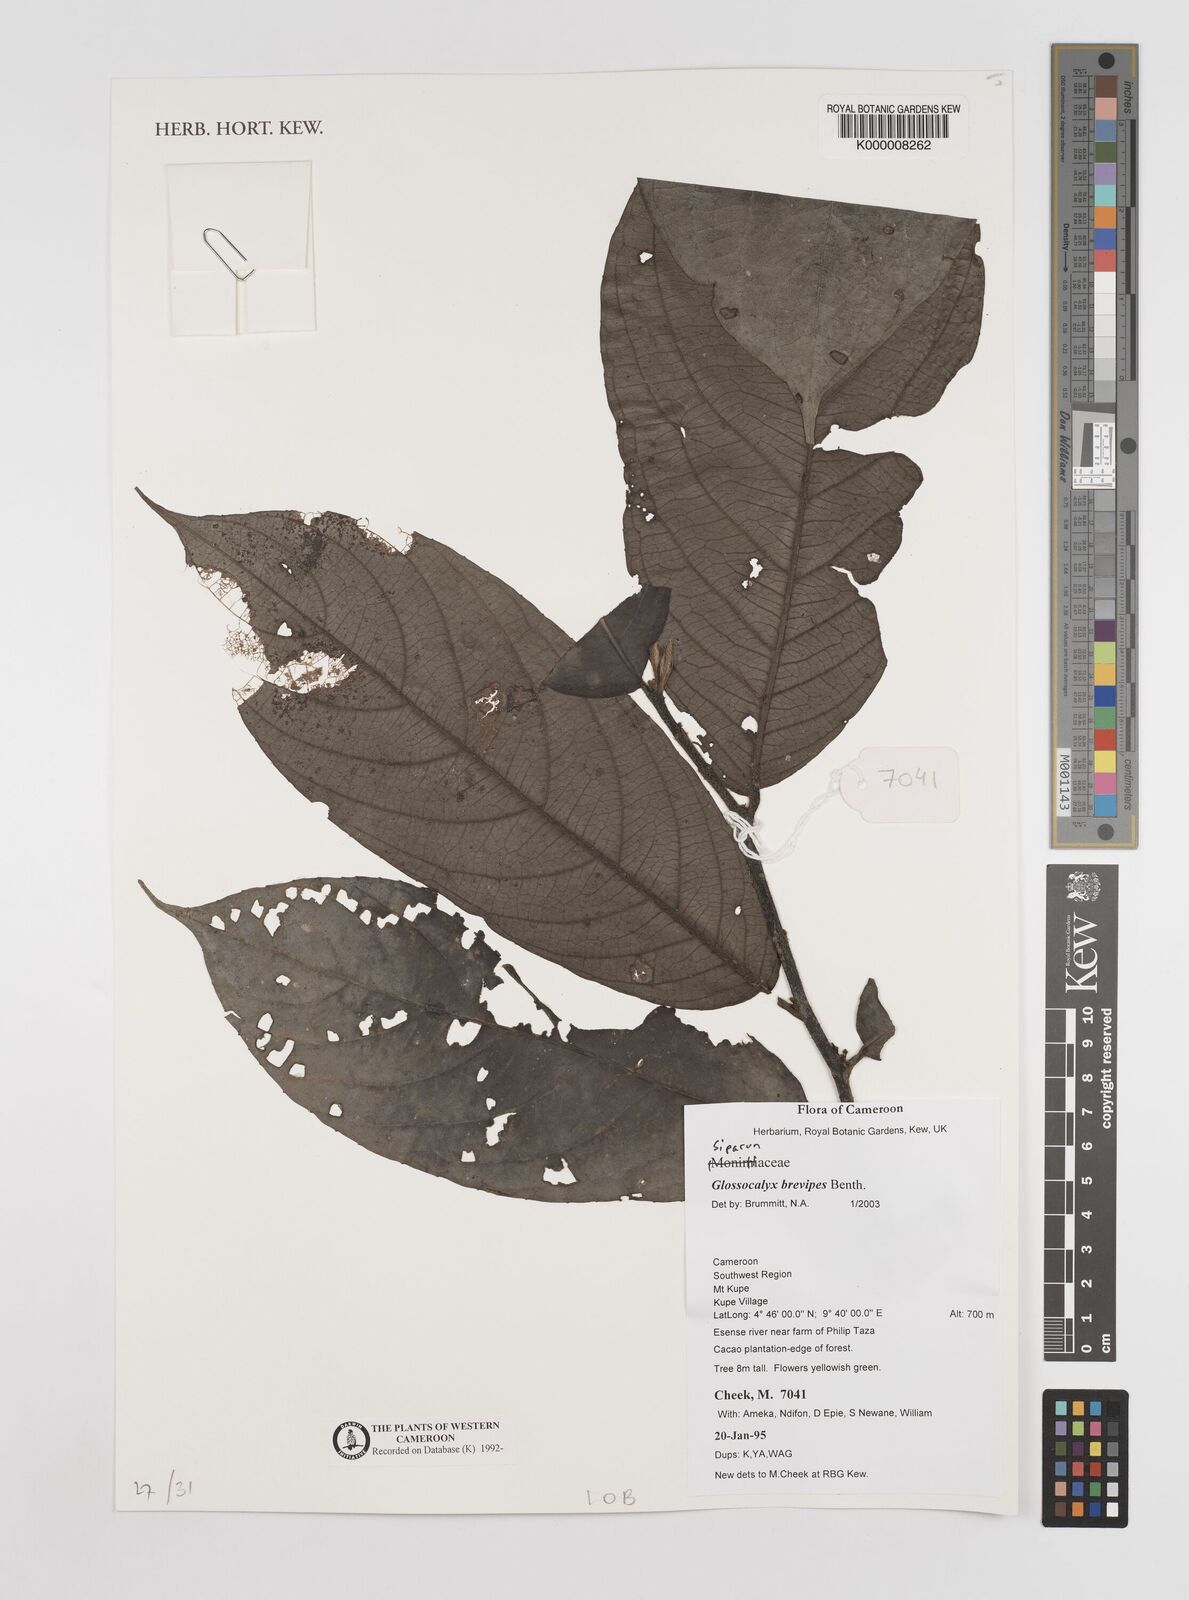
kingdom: Plantae
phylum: Tracheophyta
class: Magnoliopsida
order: Laurales
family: Siparunaceae
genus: Glossocalyx
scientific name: Glossocalyx brevipes
